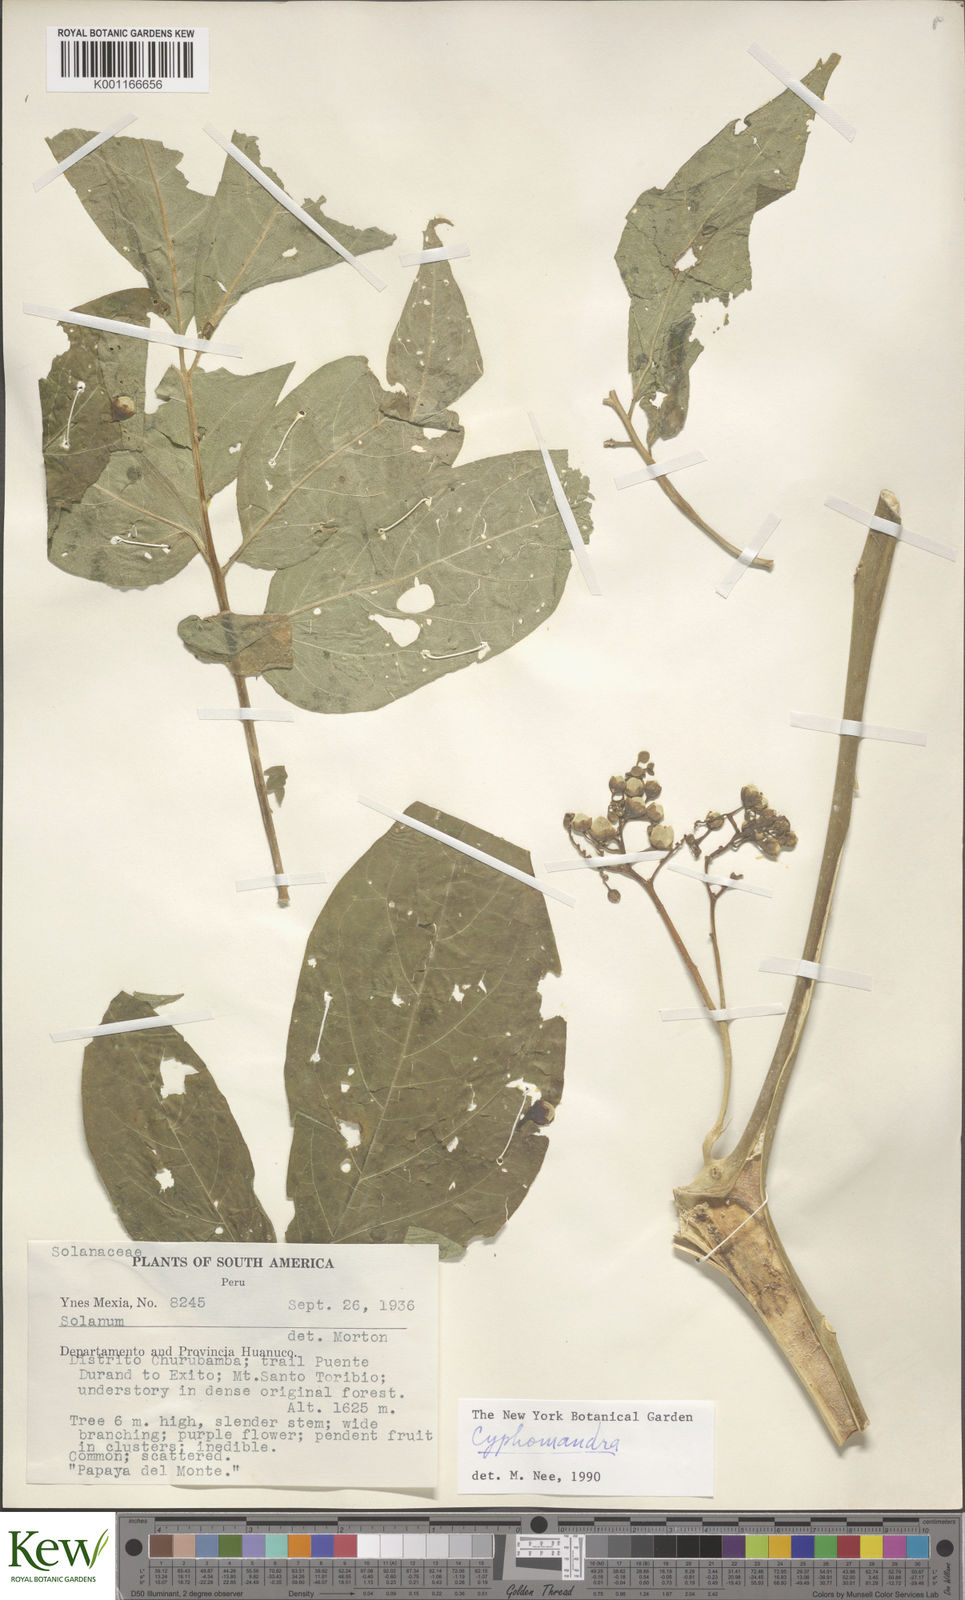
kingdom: Plantae
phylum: Tracheophyta
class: Magnoliopsida
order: Solanales
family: Solanaceae
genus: Solanum
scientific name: Solanum
